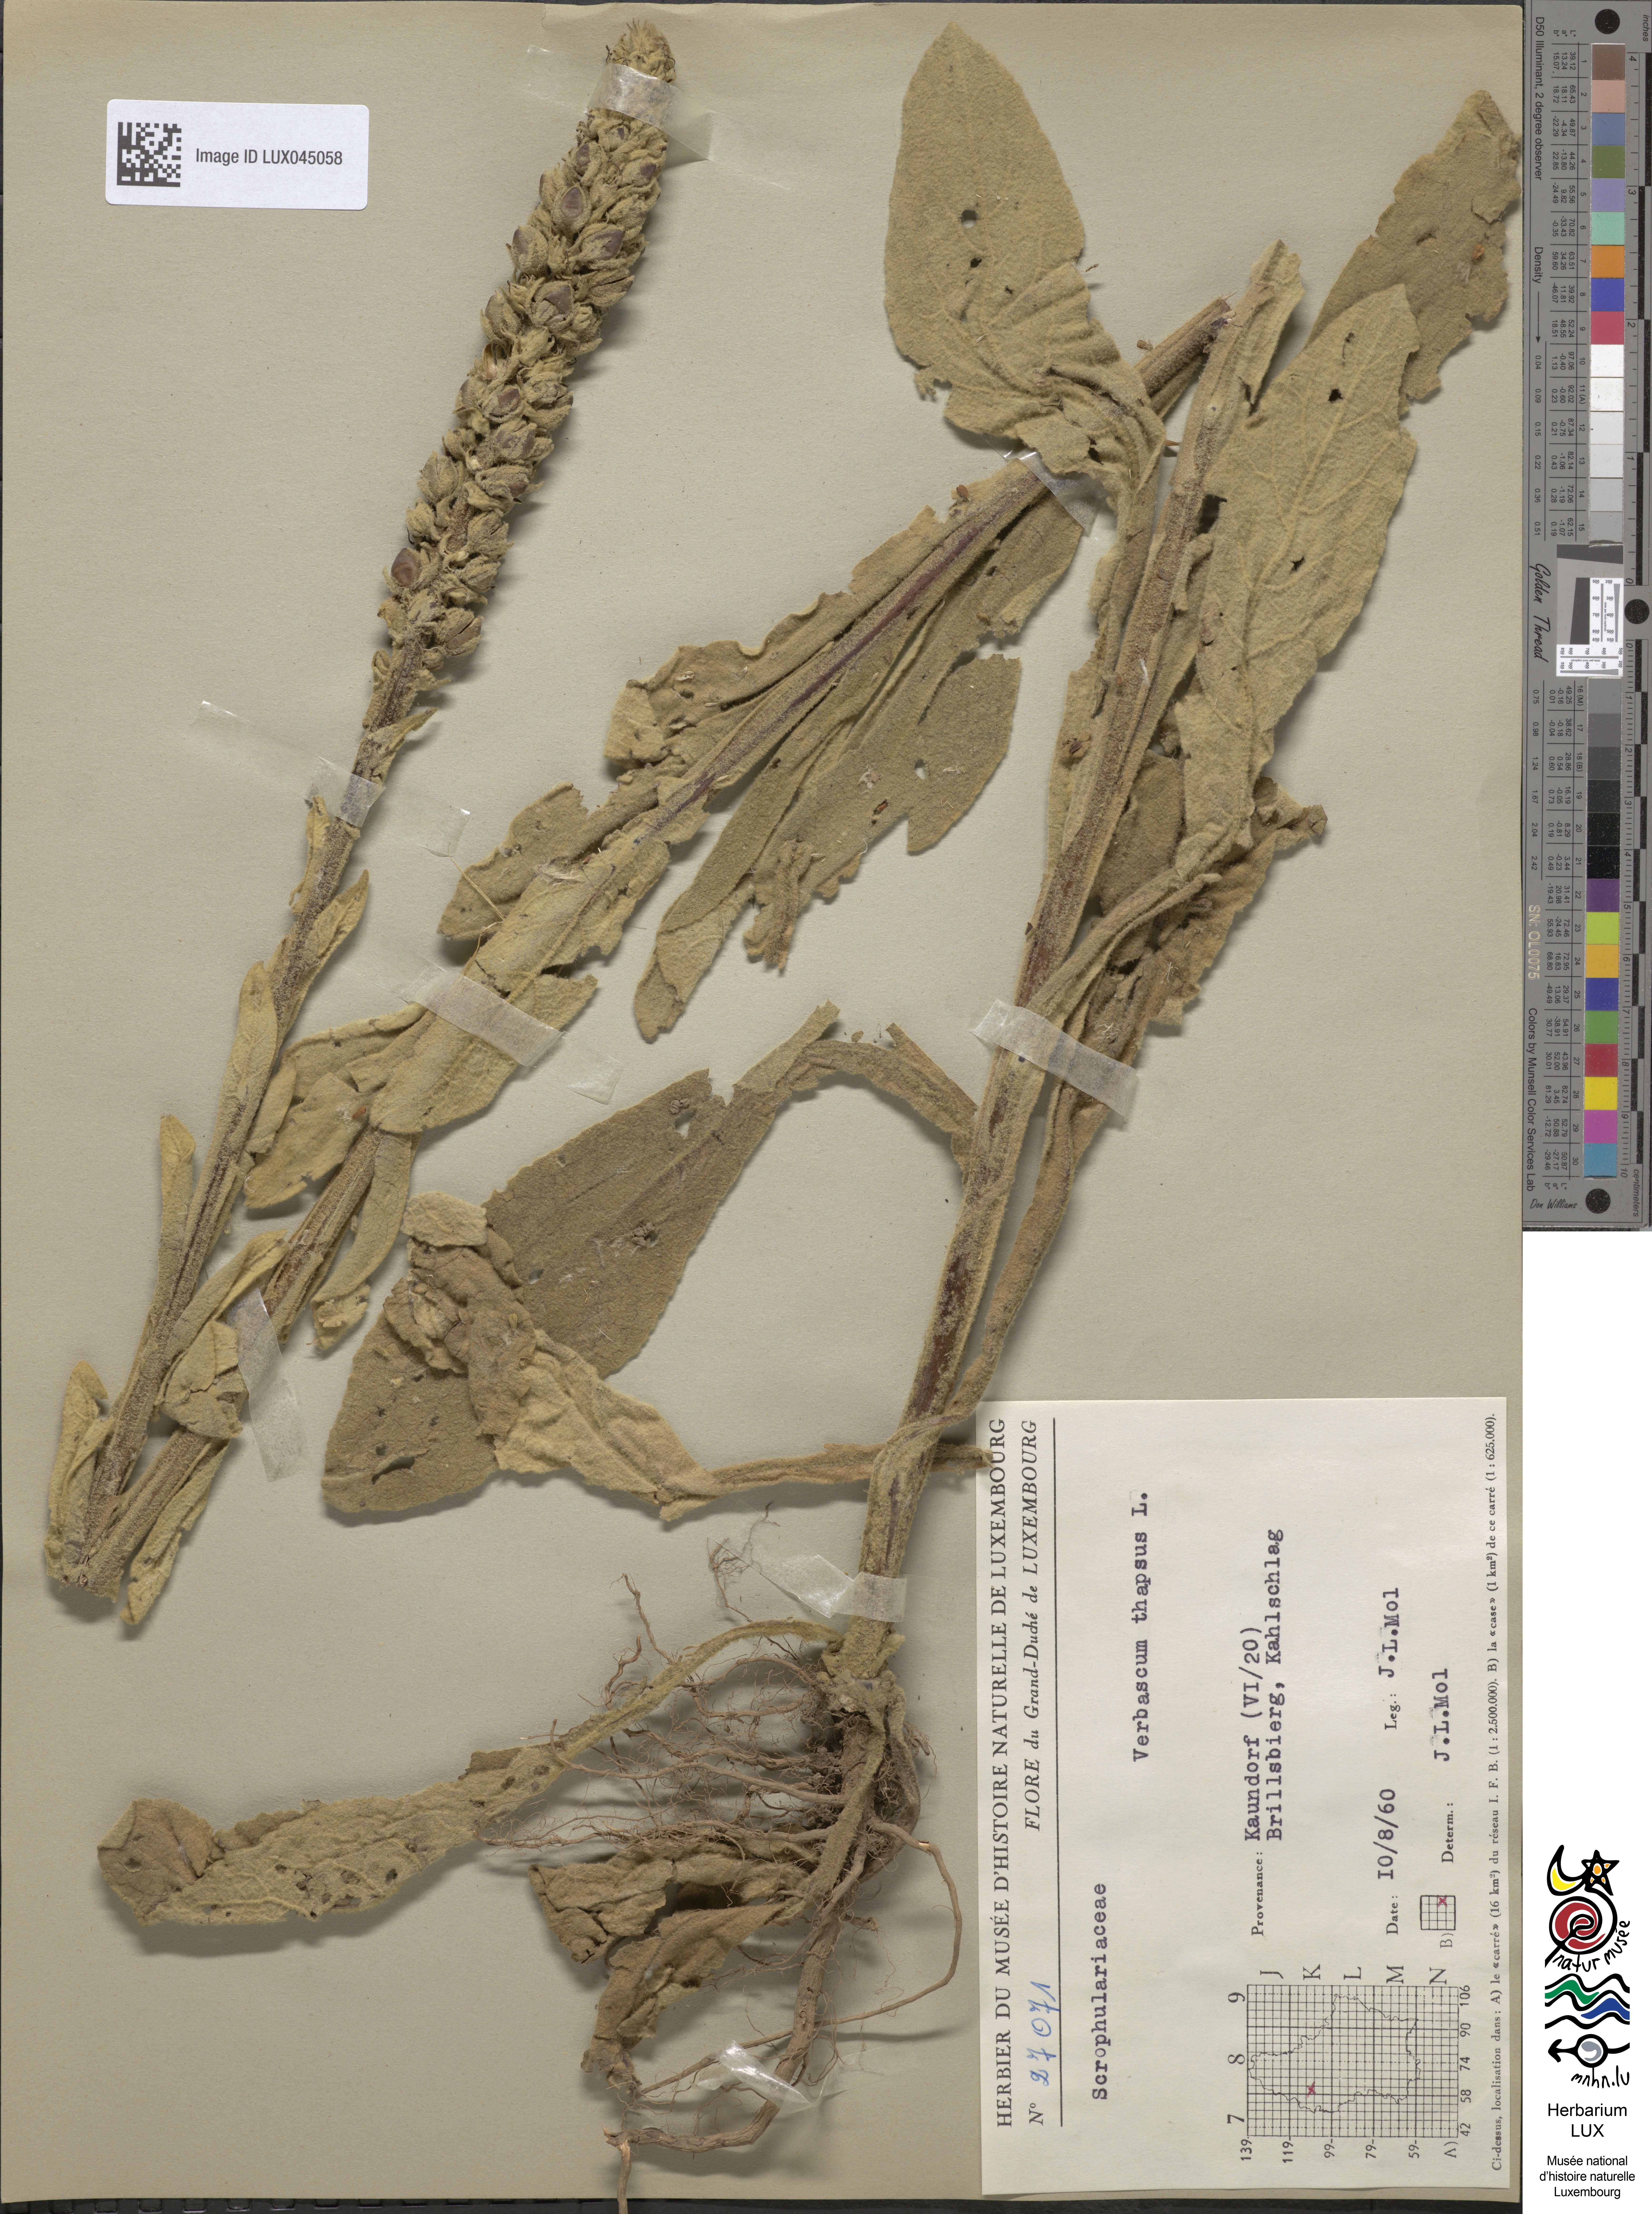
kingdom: Plantae
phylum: Tracheophyta
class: Magnoliopsida
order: Lamiales
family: Scrophulariaceae
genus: Verbascum
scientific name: Verbascum thapsus
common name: Common mullein
